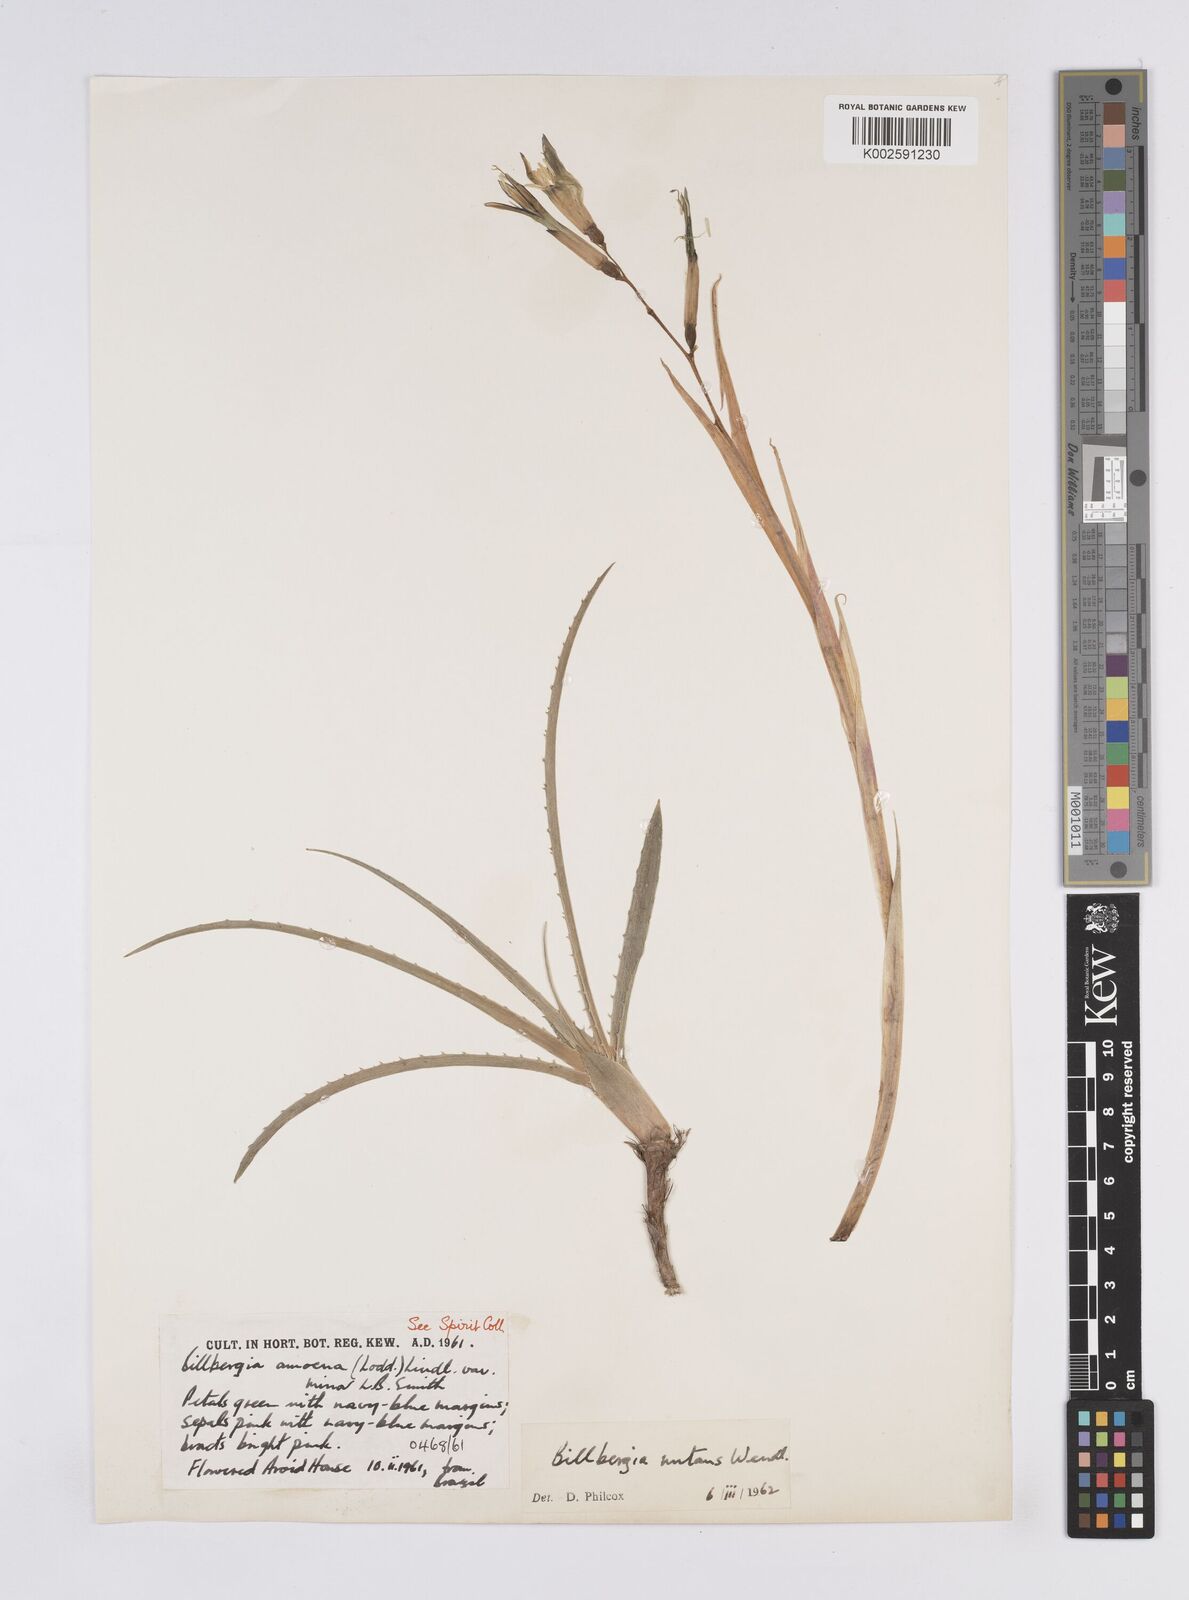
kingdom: Plantae
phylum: Tracheophyta
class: Liliopsida
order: Poales
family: Bromeliaceae
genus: Billbergia
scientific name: Billbergia nutans
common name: Friendship-plant
